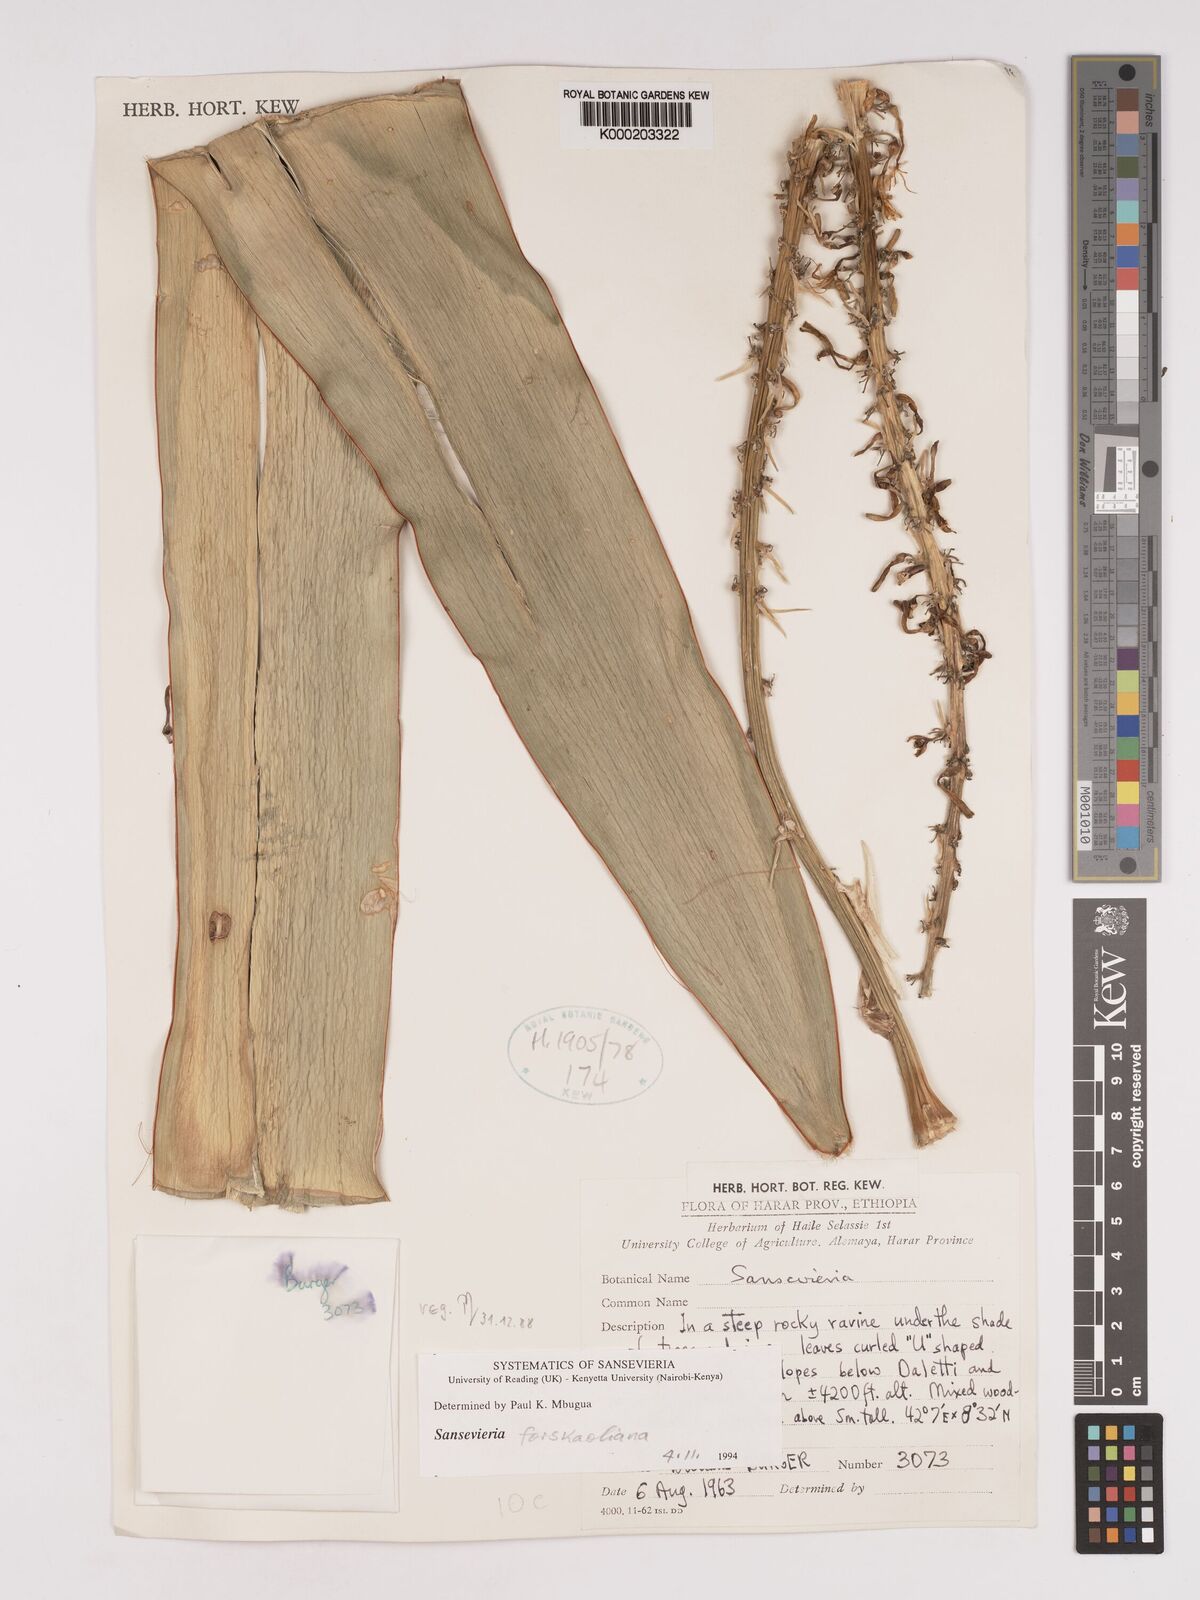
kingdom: Plantae
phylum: Tracheophyta
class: Liliopsida
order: Asparagales
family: Asparagaceae
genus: Dracaena
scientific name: Dracaena
